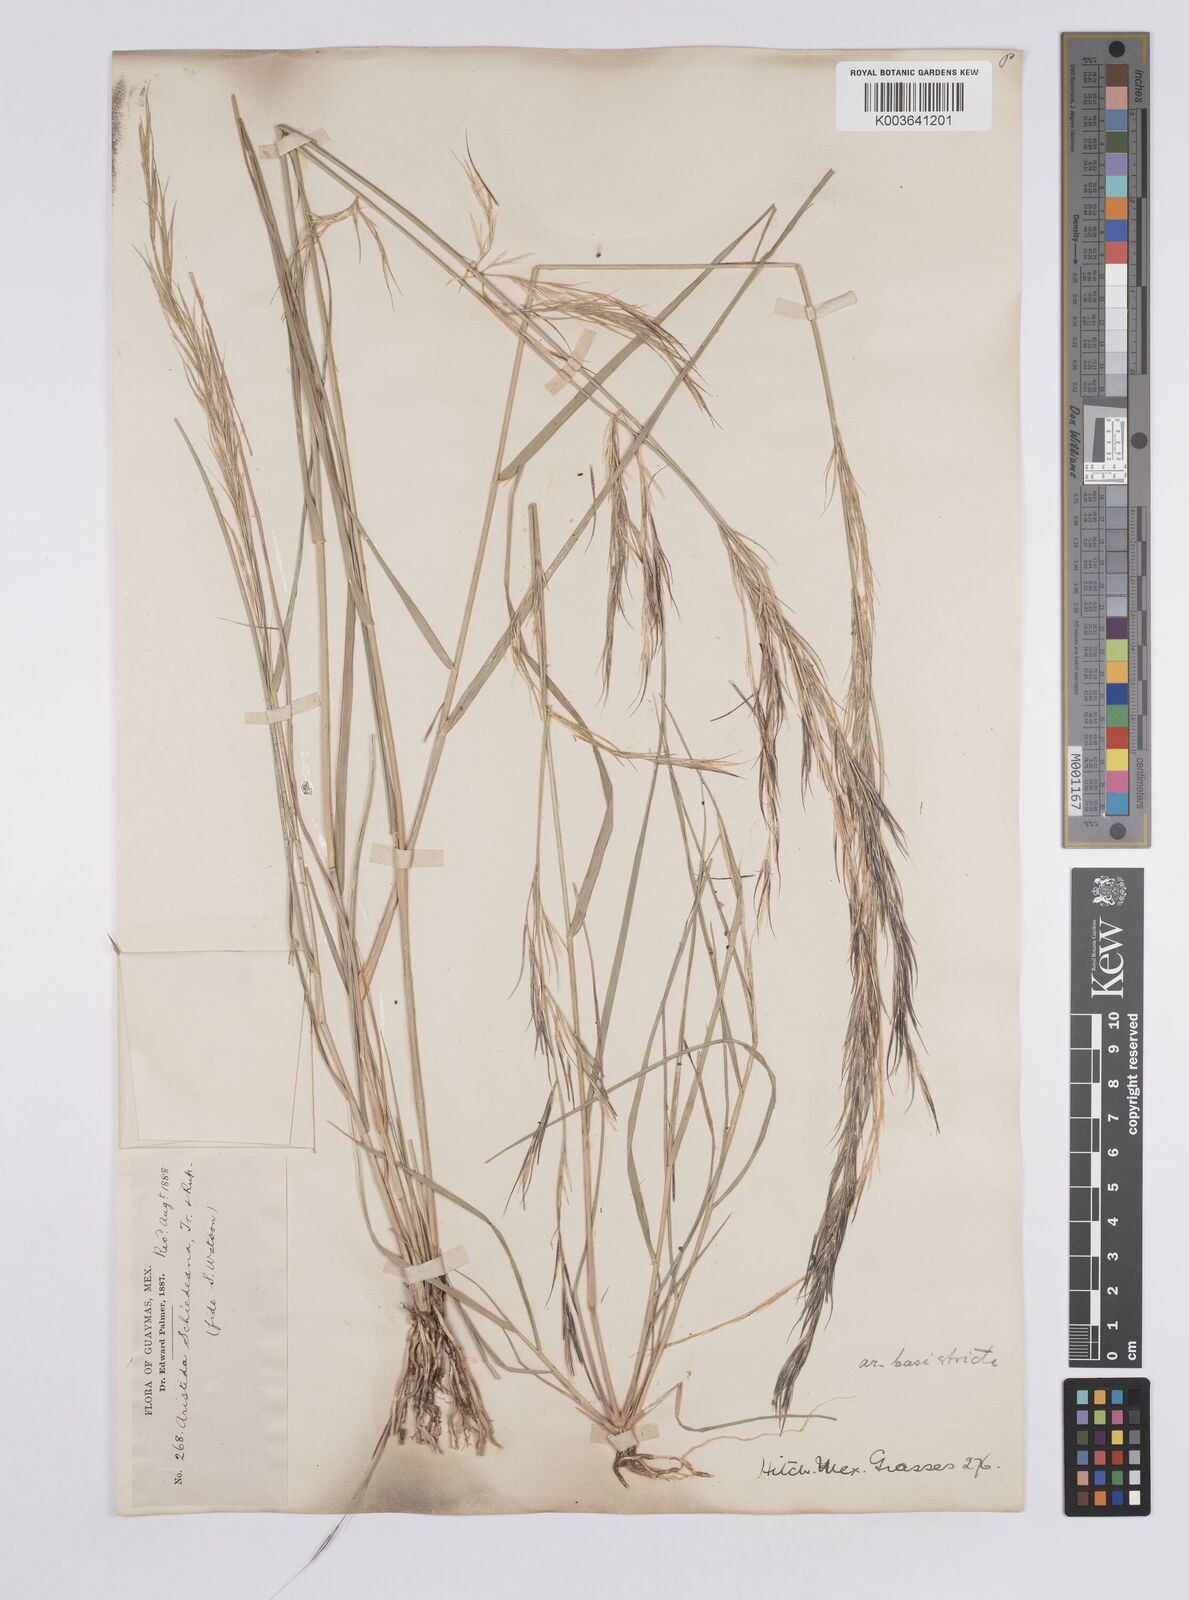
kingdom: Plantae
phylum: Tracheophyta
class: Liliopsida
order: Poales
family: Poaceae
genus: Aristida
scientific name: Aristida ternipes
